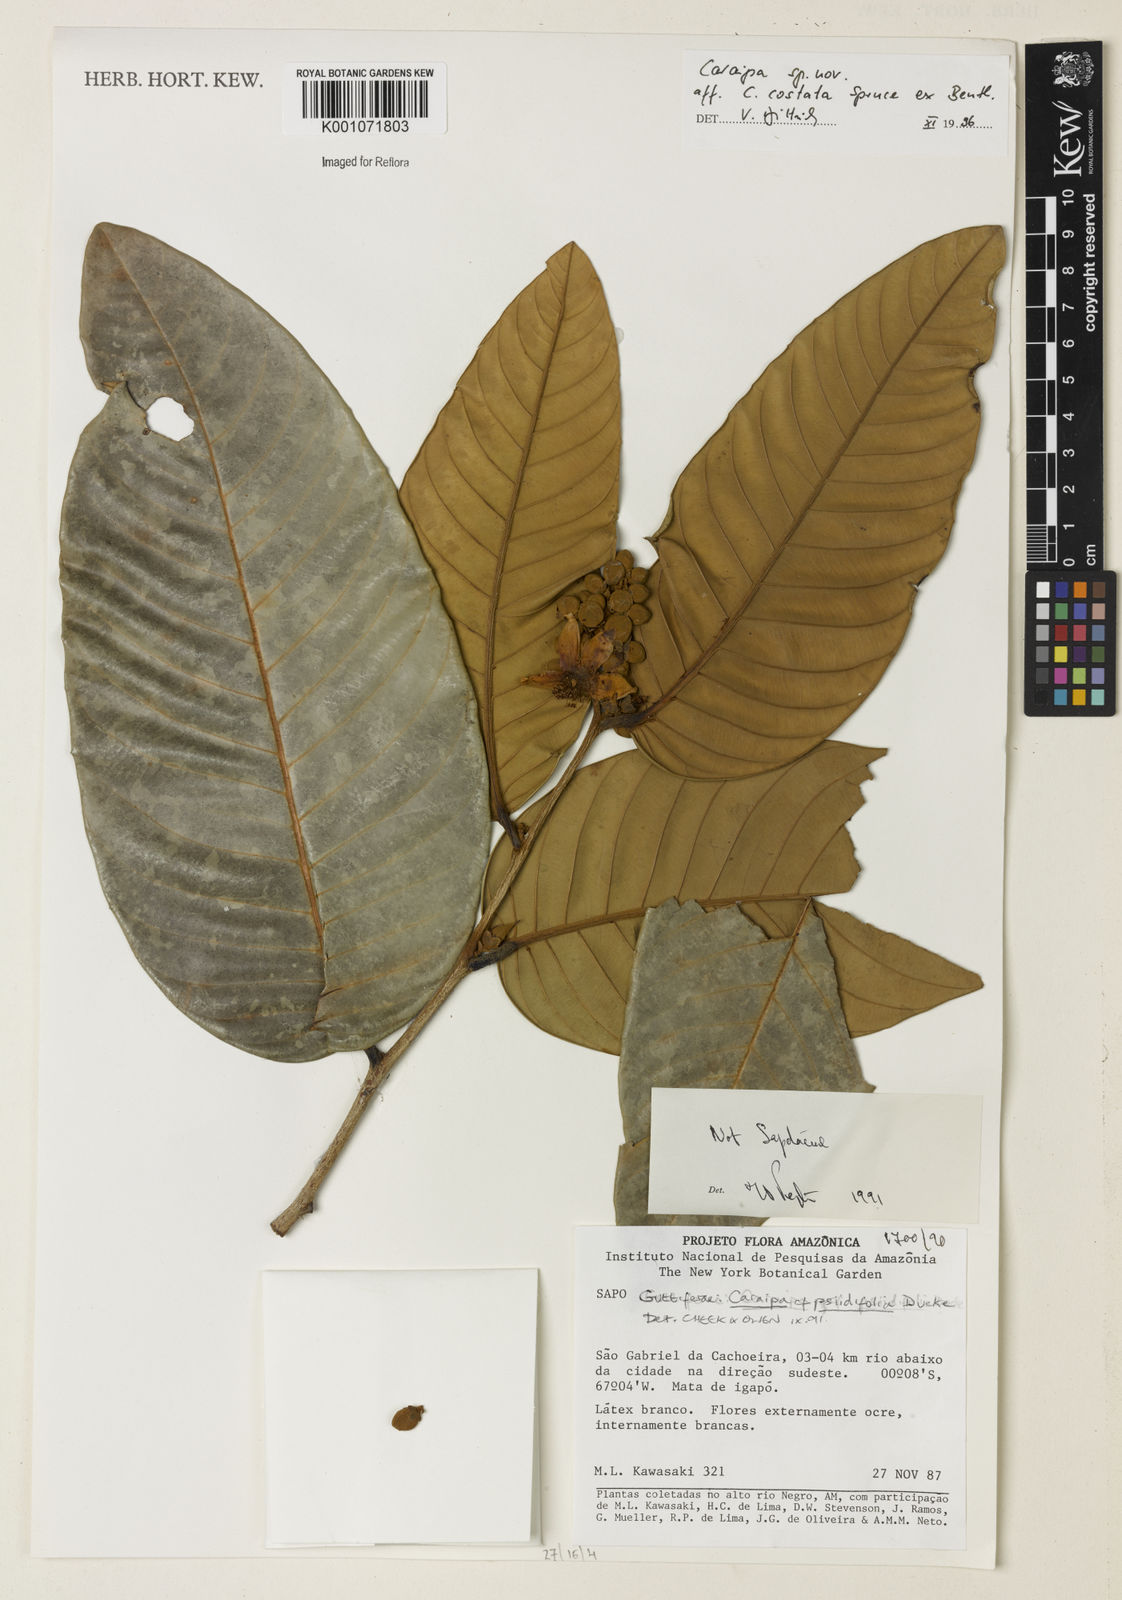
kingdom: Plantae
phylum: Tracheophyta
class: Magnoliopsida
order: Malpighiales
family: Calophyllaceae
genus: Caraipa
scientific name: Caraipa costata
